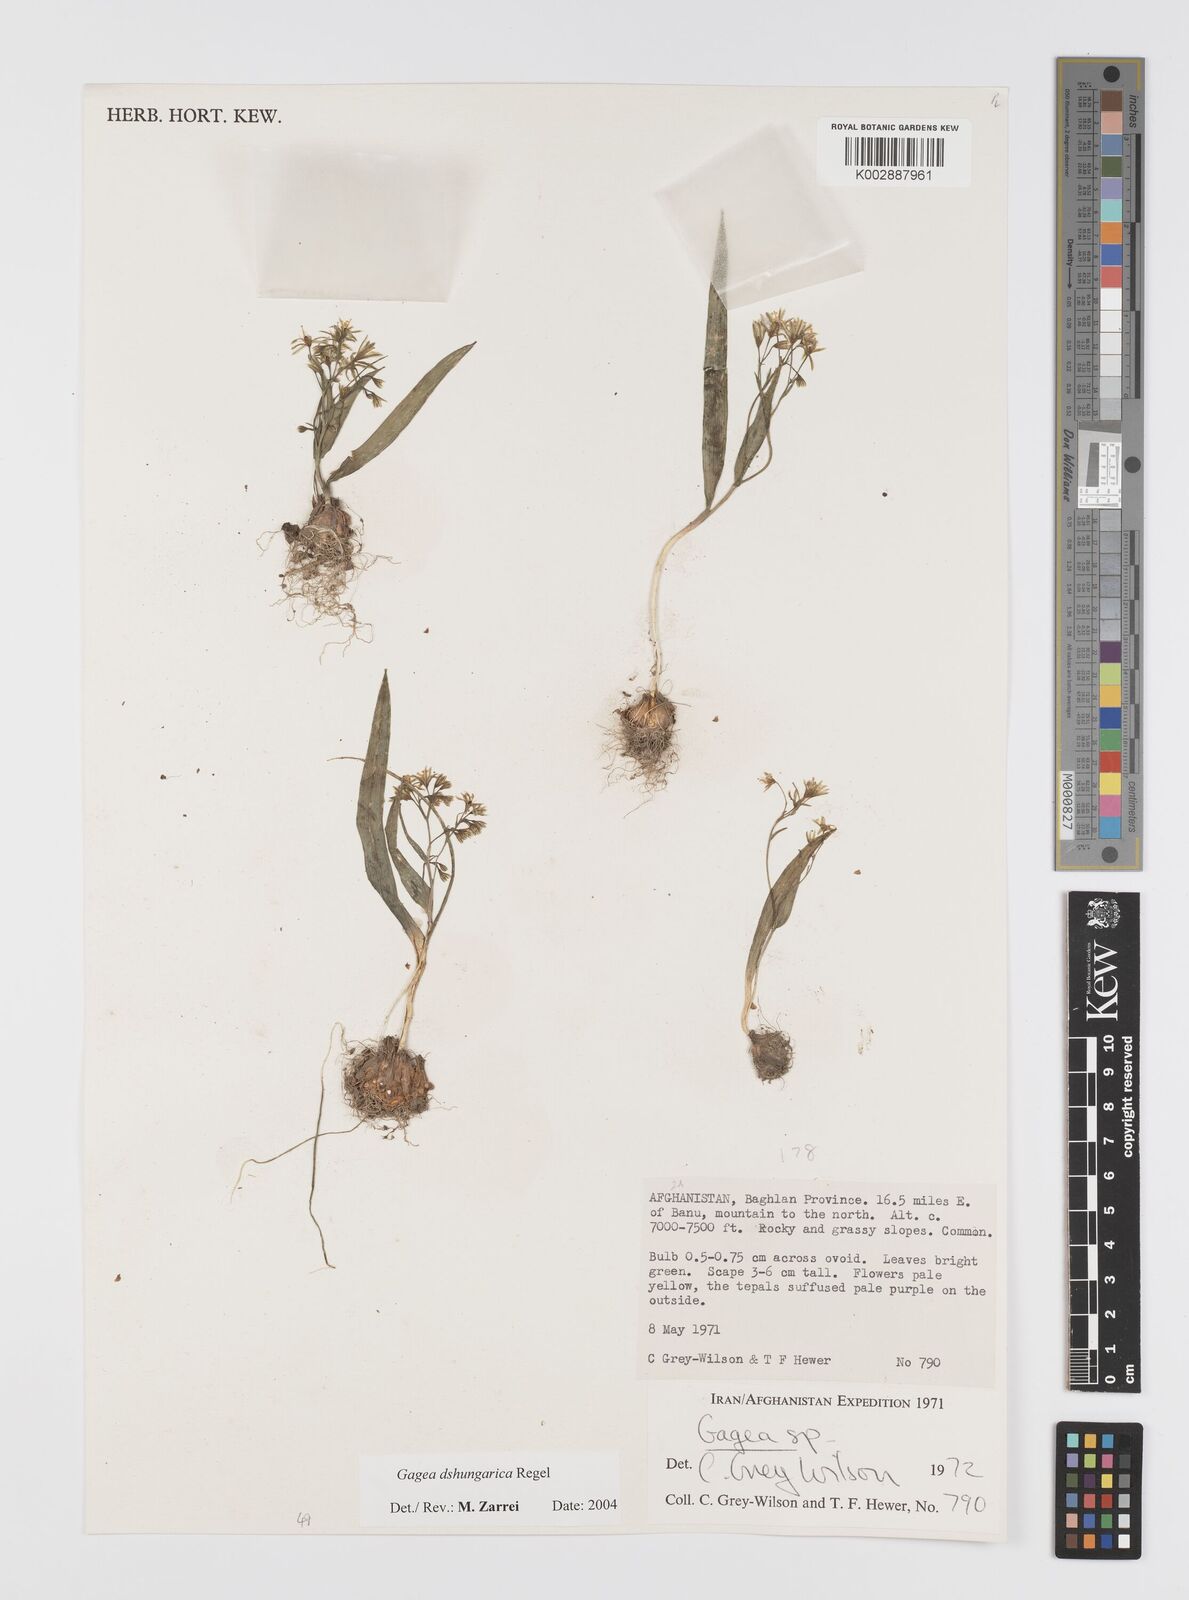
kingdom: Plantae
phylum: Tracheophyta
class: Liliopsida
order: Liliales
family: Liliaceae
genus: Gagea
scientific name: Gagea dschungarica
